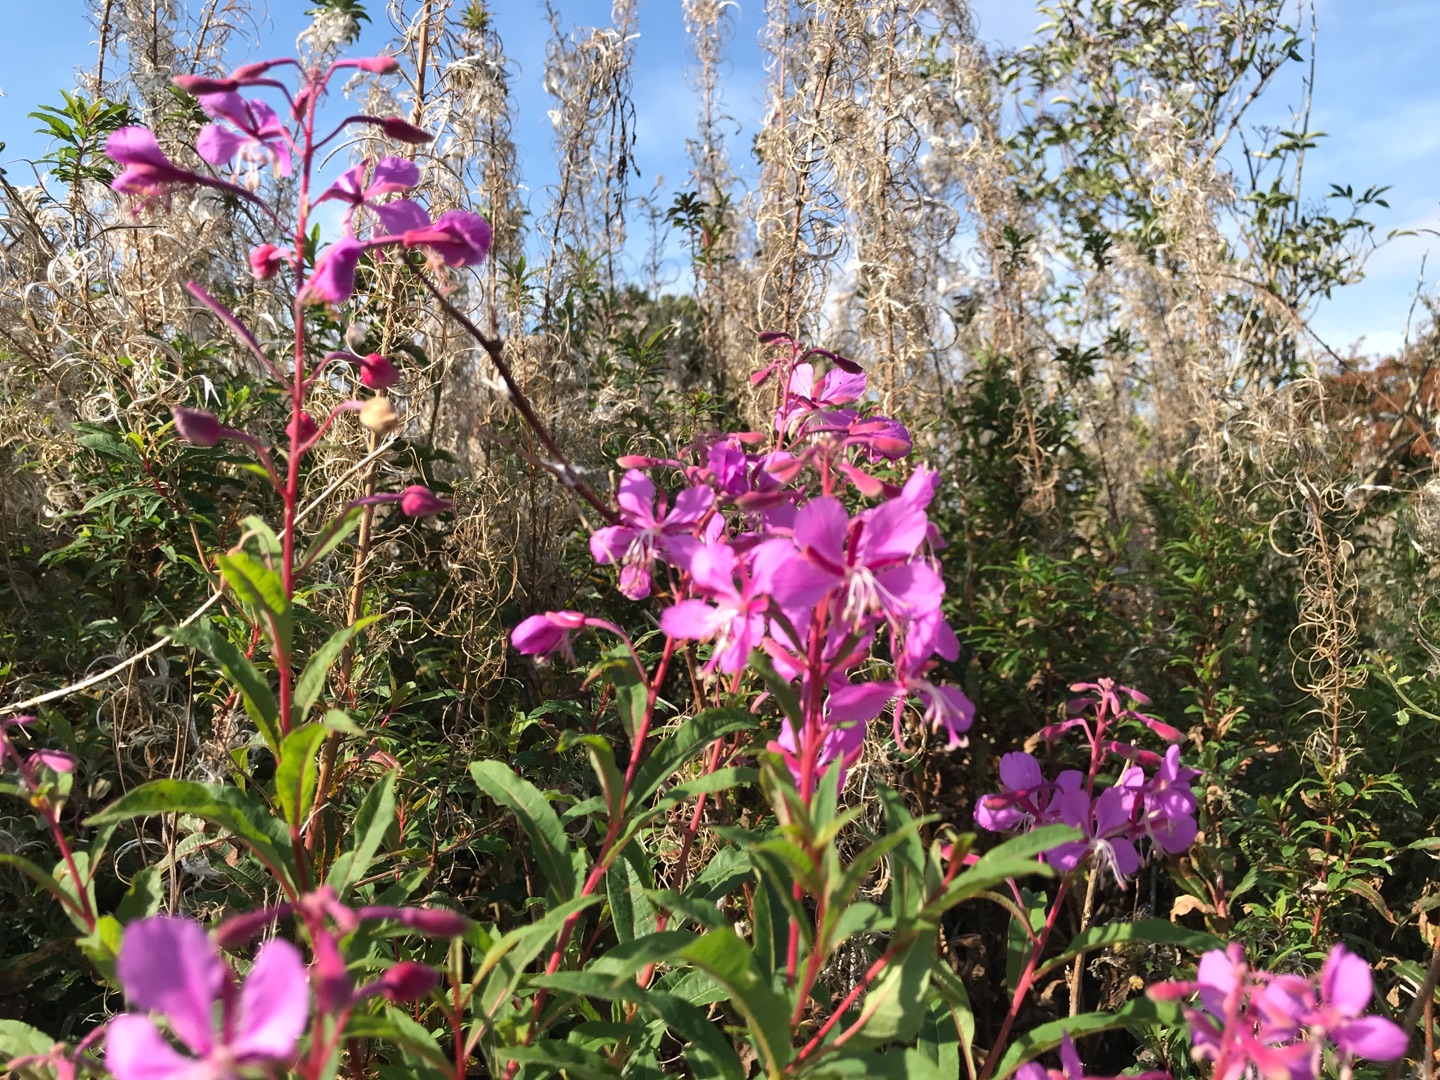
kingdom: Plantae
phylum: Tracheophyta
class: Magnoliopsida
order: Myrtales
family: Onagraceae
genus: Chamaenerion
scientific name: Chamaenerion angustifolium
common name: Gederams
